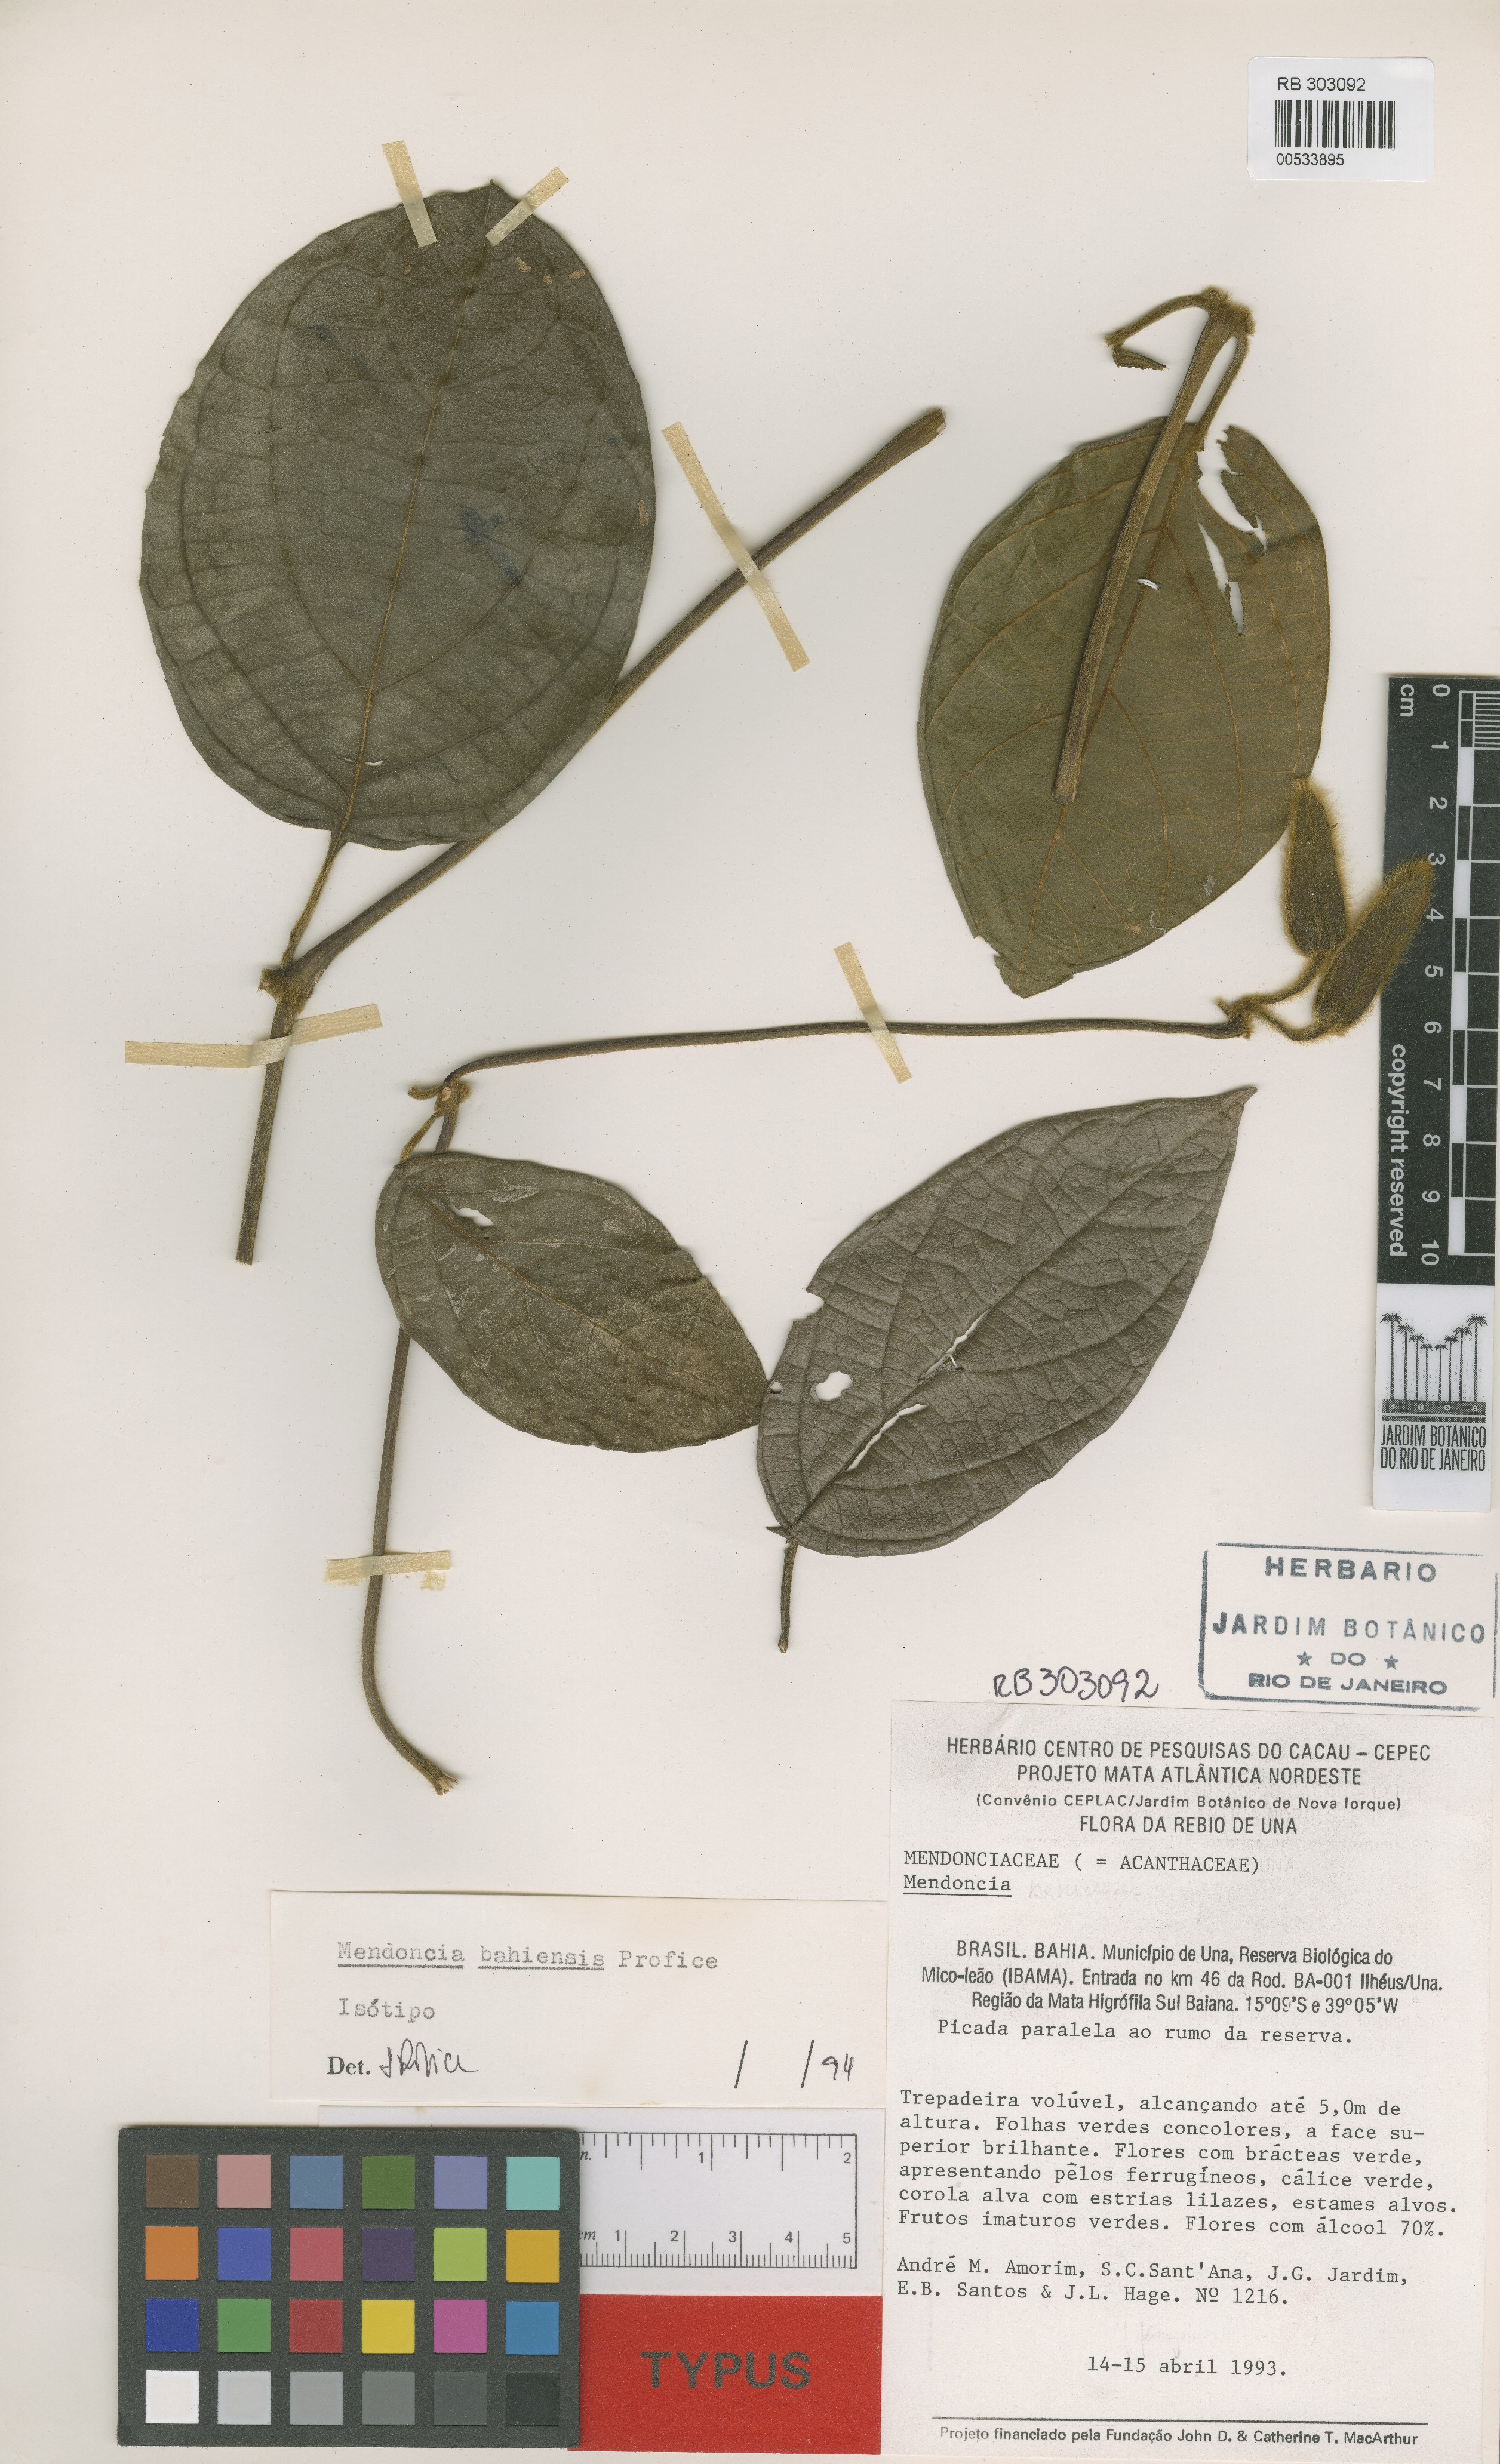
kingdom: Plantae
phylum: Tracheophyta
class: Magnoliopsida
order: Lamiales
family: Acanthaceae
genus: Mendoncia
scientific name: Mendoncia bahiensis
